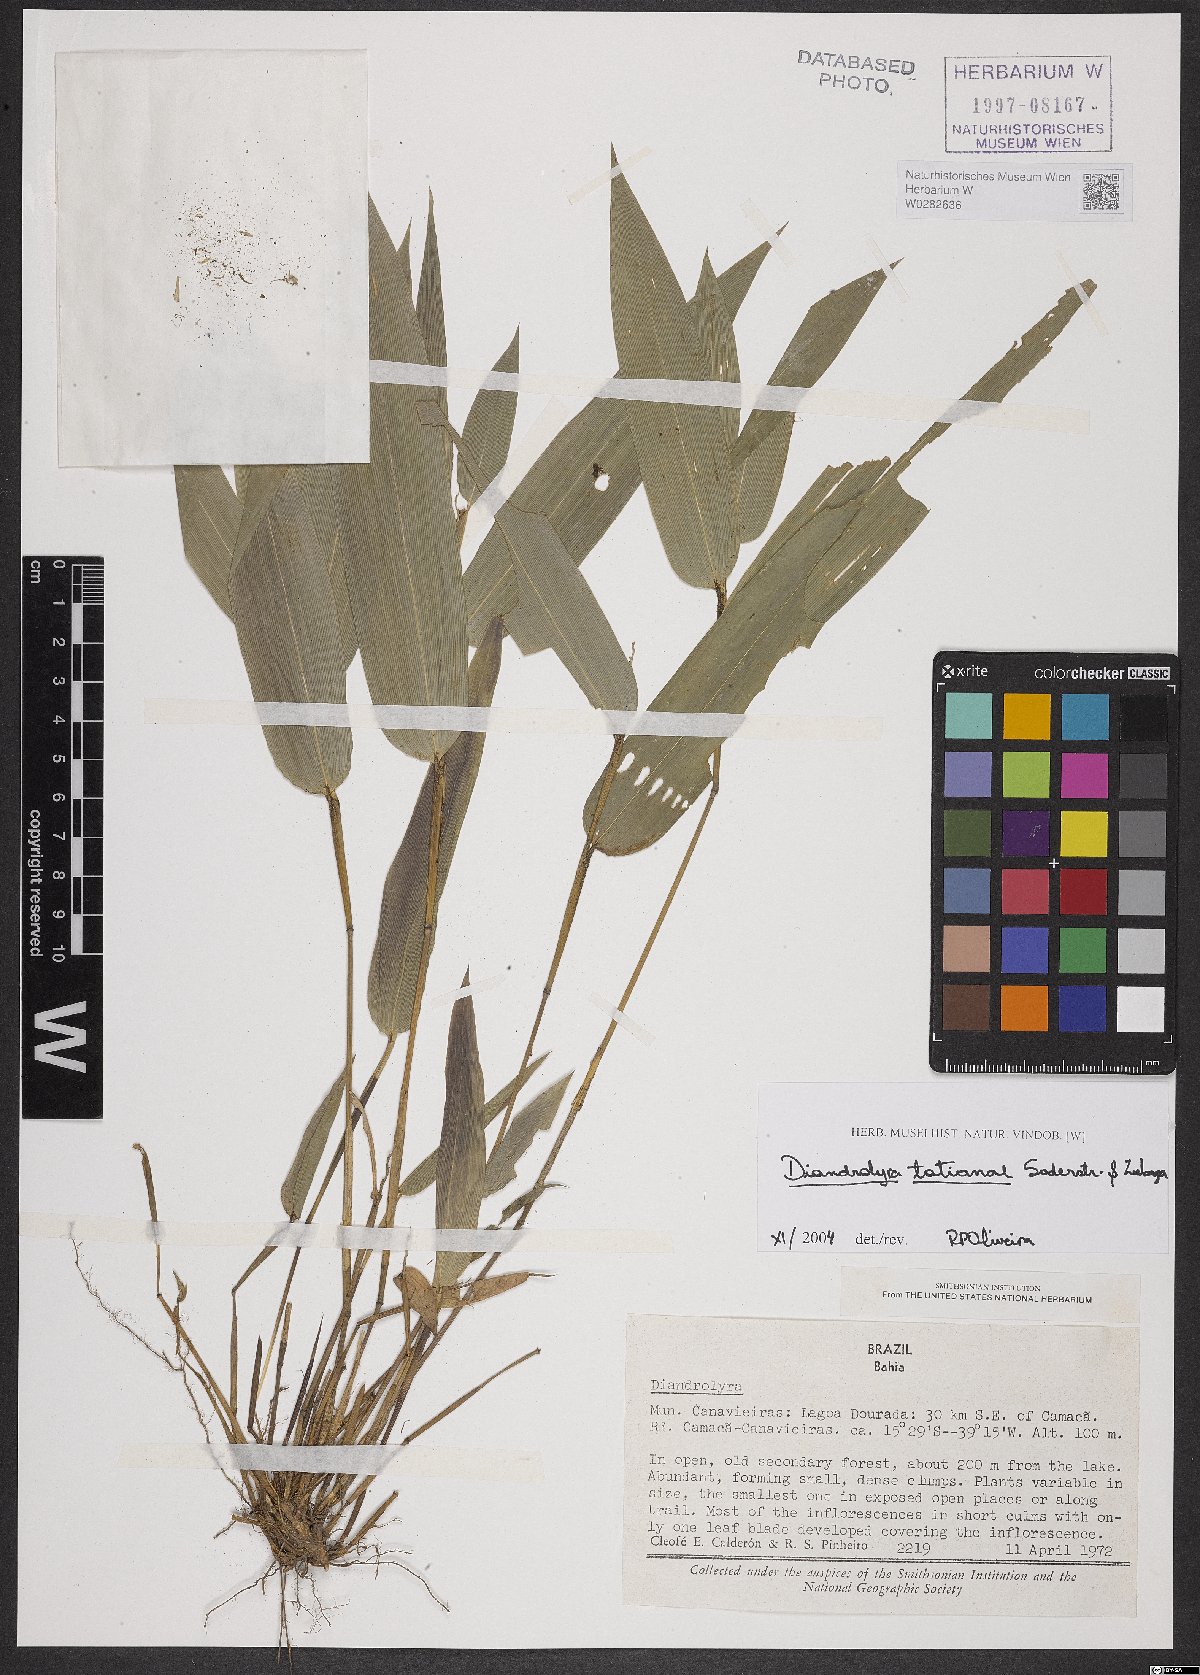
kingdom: Plantae
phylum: Tracheophyta
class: Liliopsida
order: Poales
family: Poaceae
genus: Diandrolyra
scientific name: Diandrolyra tatianae
